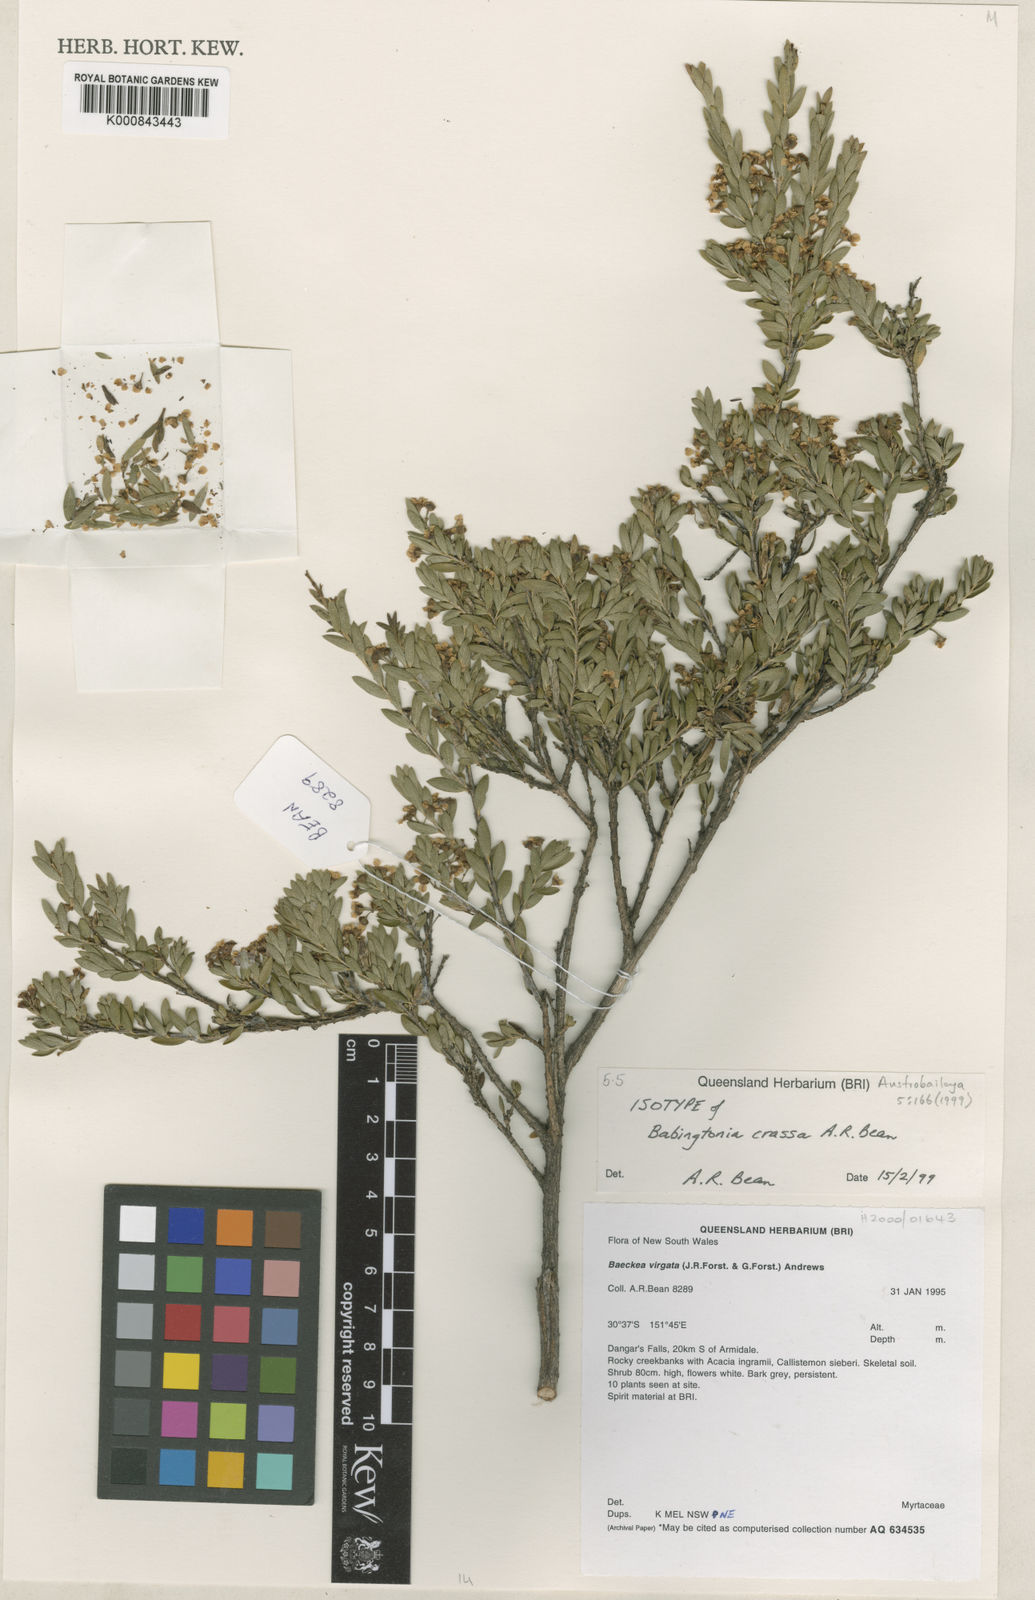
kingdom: Plantae
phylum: Tracheophyta
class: Magnoliopsida
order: Myrtales
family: Myrtaceae
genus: Sannantha
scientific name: Sannantha crassa
